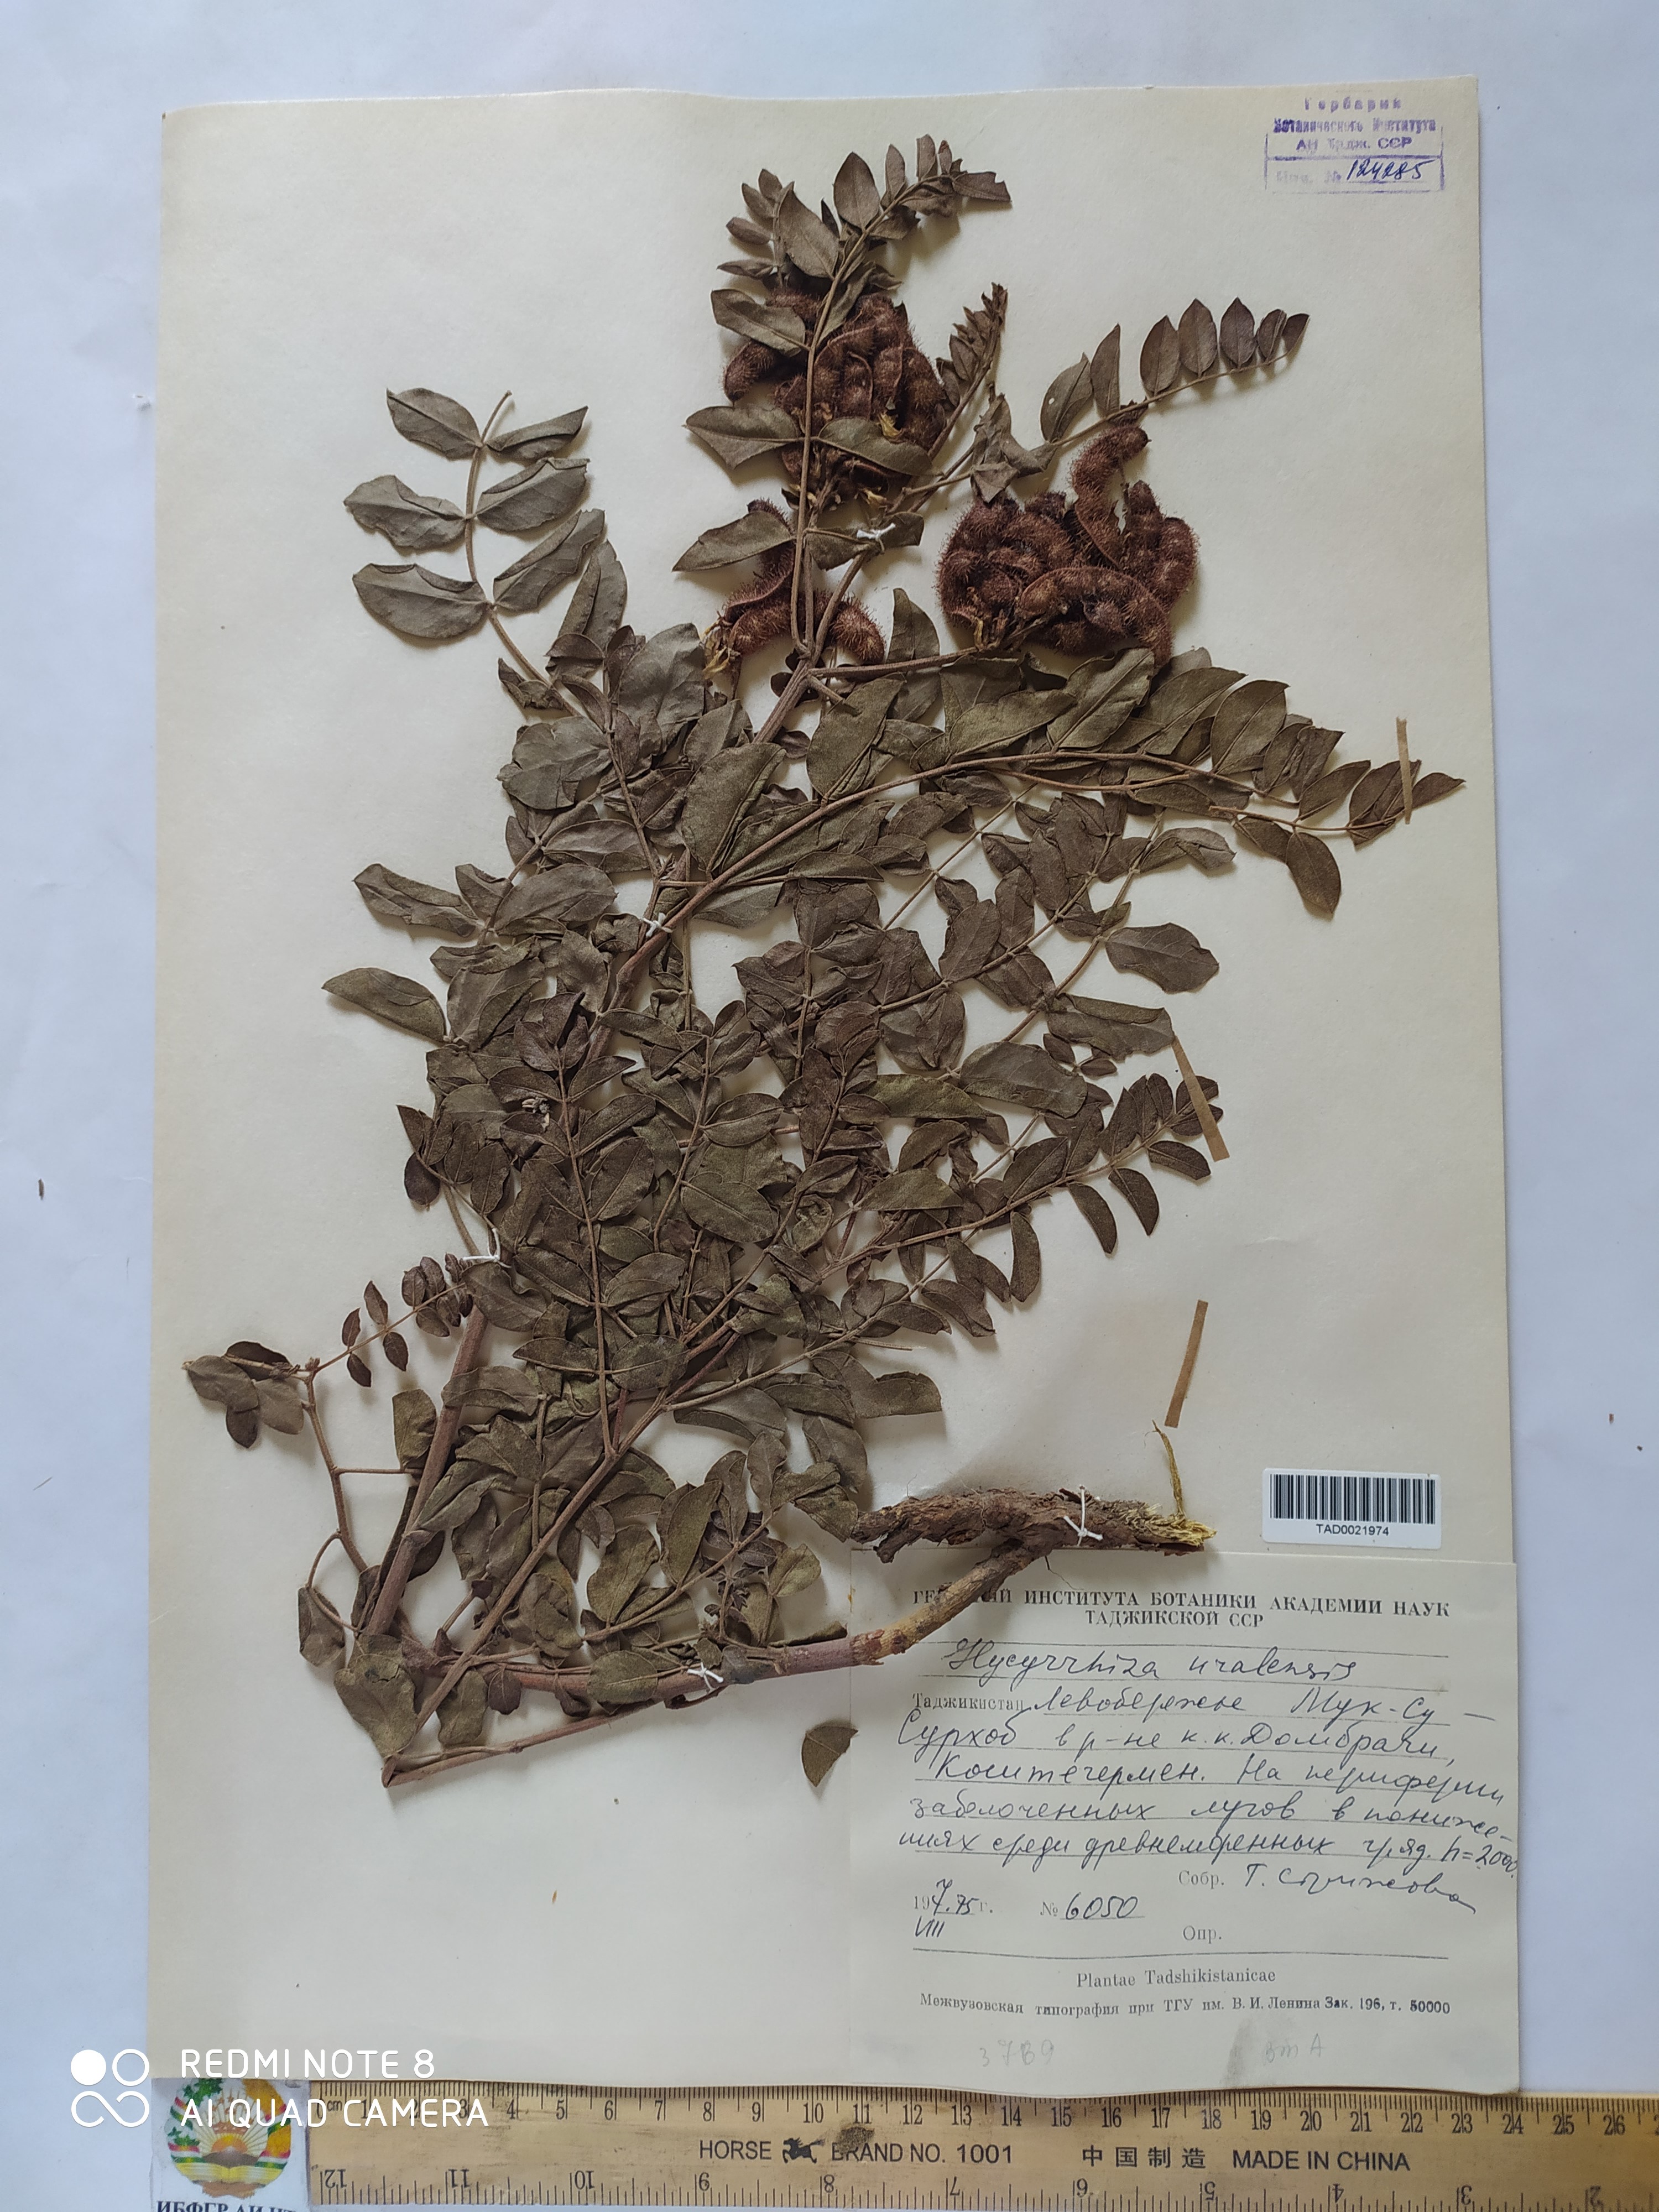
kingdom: Plantae
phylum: Tracheophyta
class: Magnoliopsida
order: Fabales
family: Fabaceae
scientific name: Fabaceae
